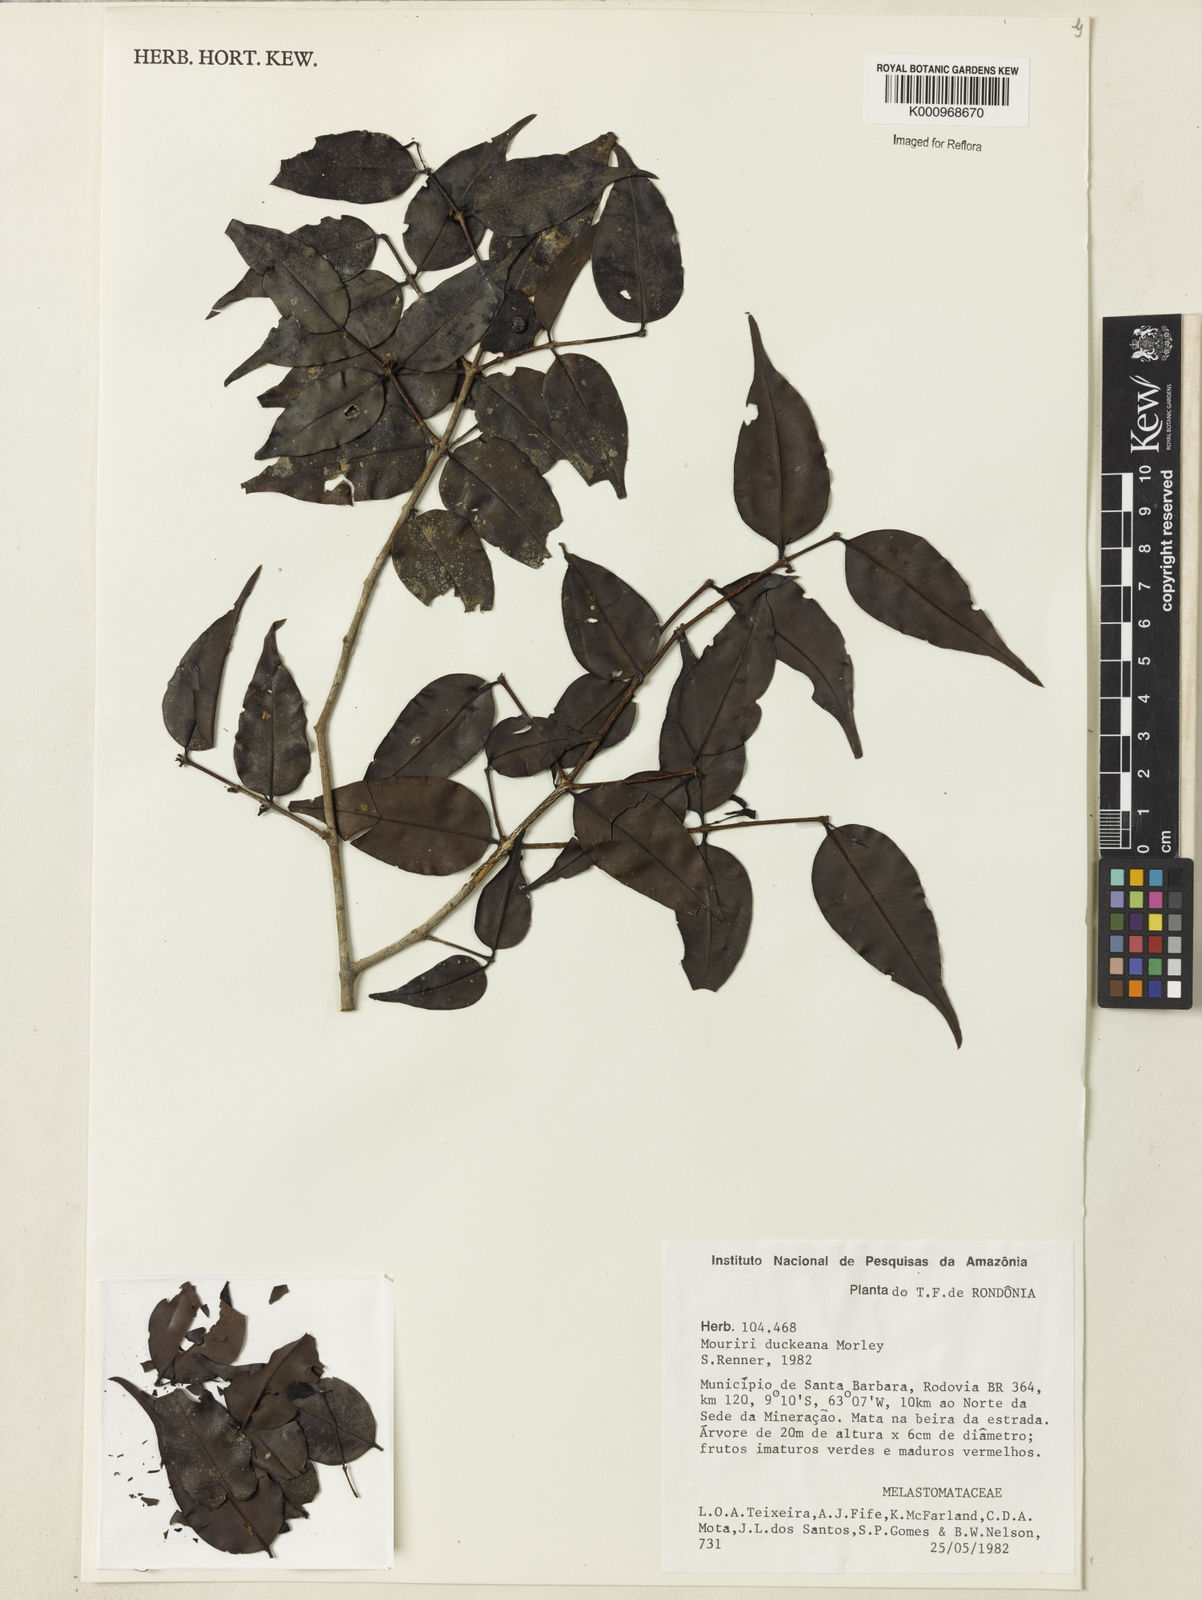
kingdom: Plantae
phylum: Tracheophyta
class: Magnoliopsida
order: Myrtales
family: Melastomataceae
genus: Mouriri
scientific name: Mouriri duckeana
